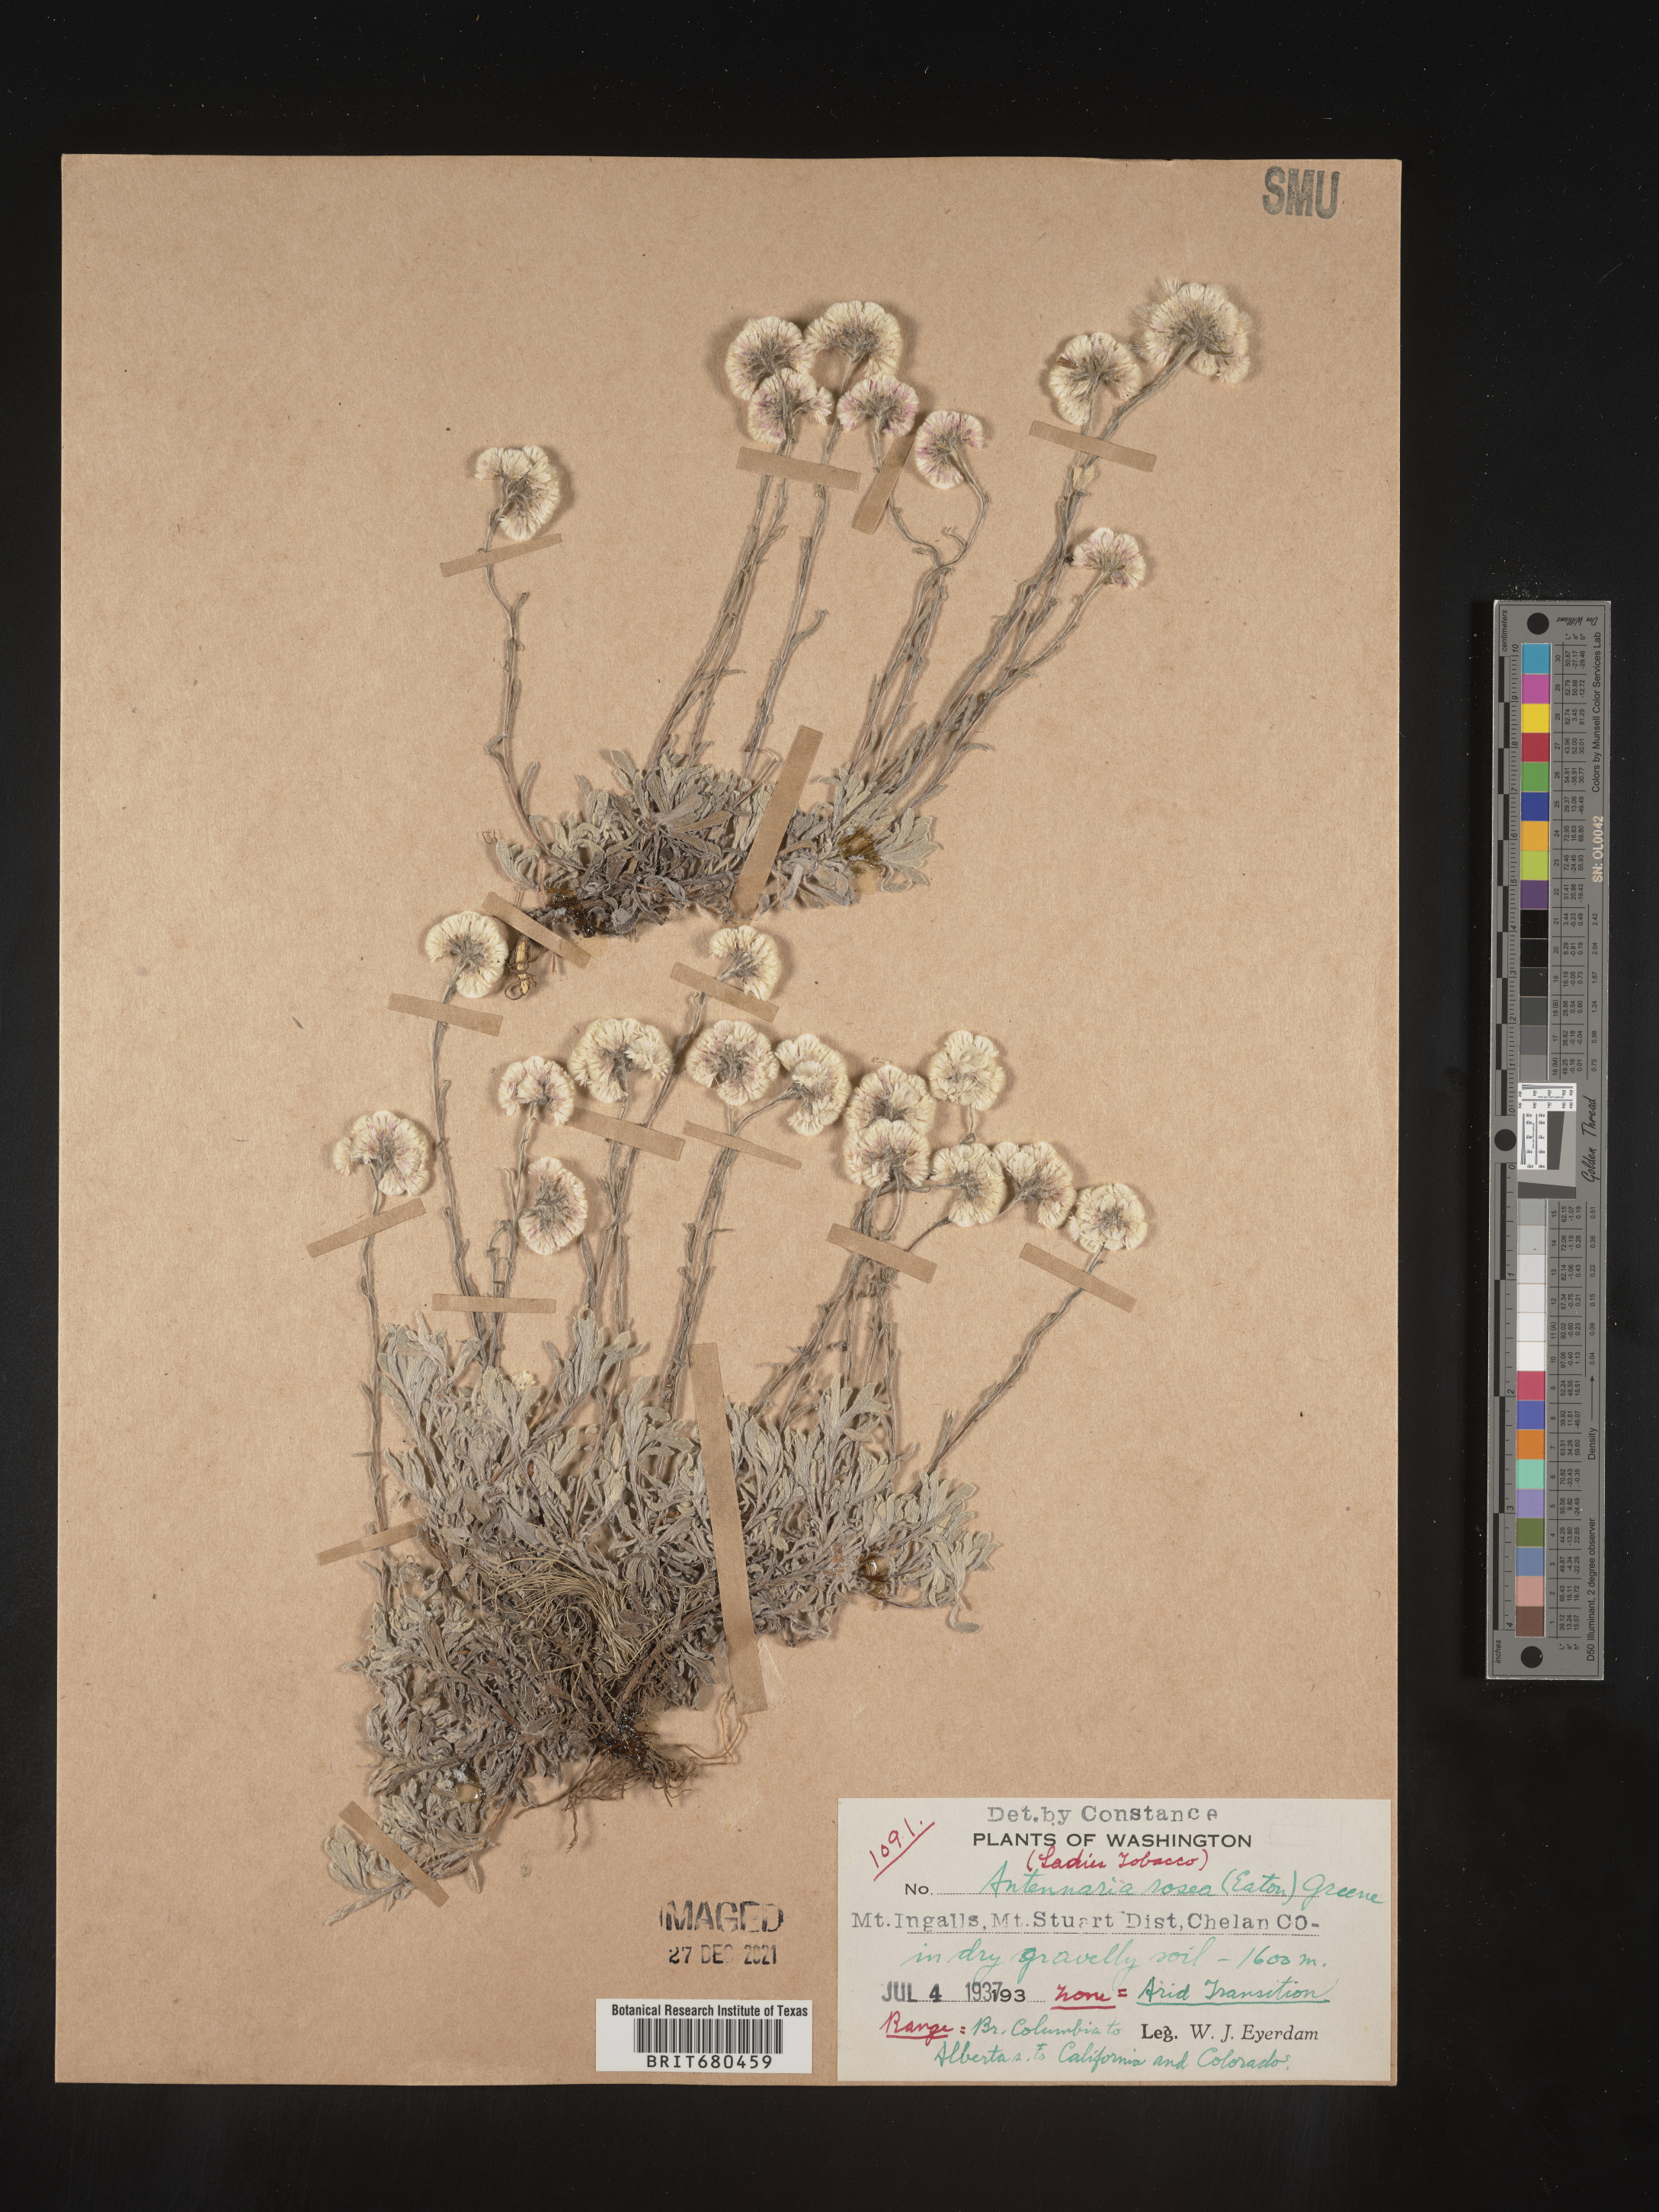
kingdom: Plantae
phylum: Tracheophyta
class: Magnoliopsida
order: Asterales
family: Asteraceae
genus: Antennaria
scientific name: Antennaria rosea
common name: Rosy pussytoes
